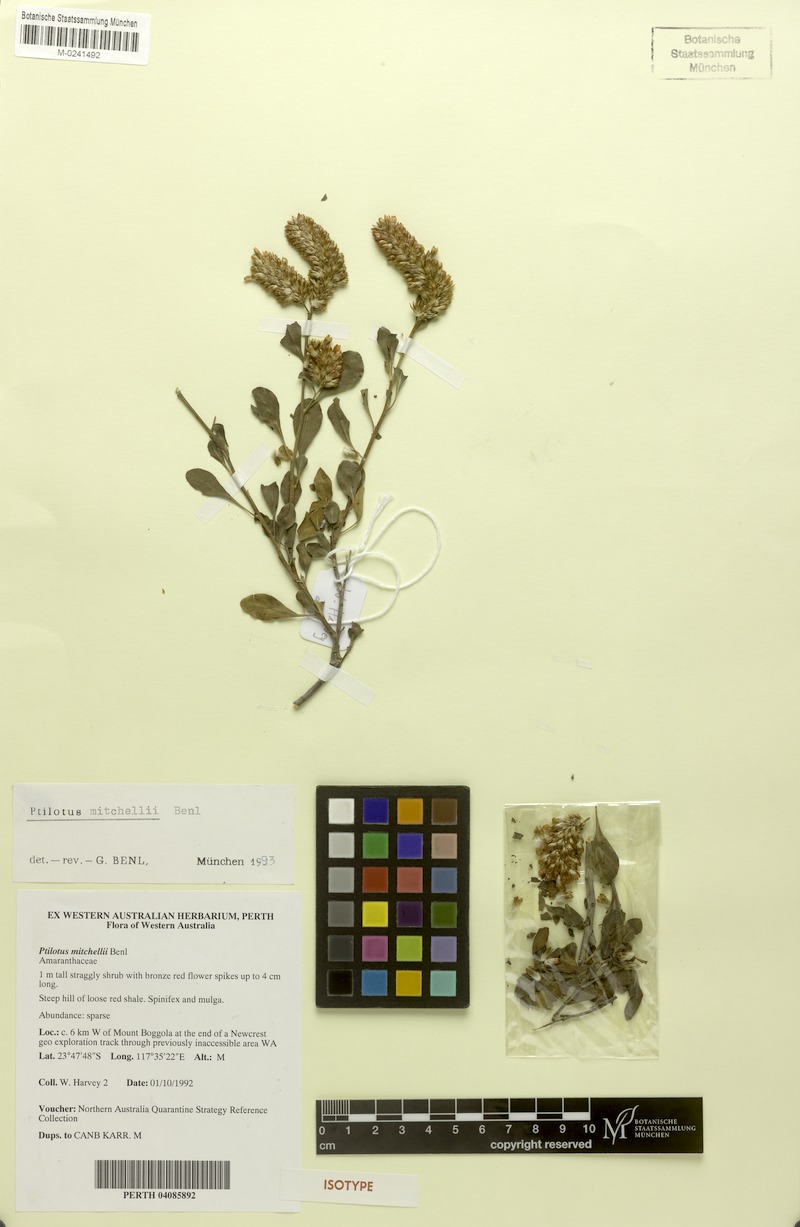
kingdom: Plantae
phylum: Tracheophyta
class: Magnoliopsida
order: Caryophyllales
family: Amaranthaceae
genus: Ptilotus
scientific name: Ptilotus mitchellii
